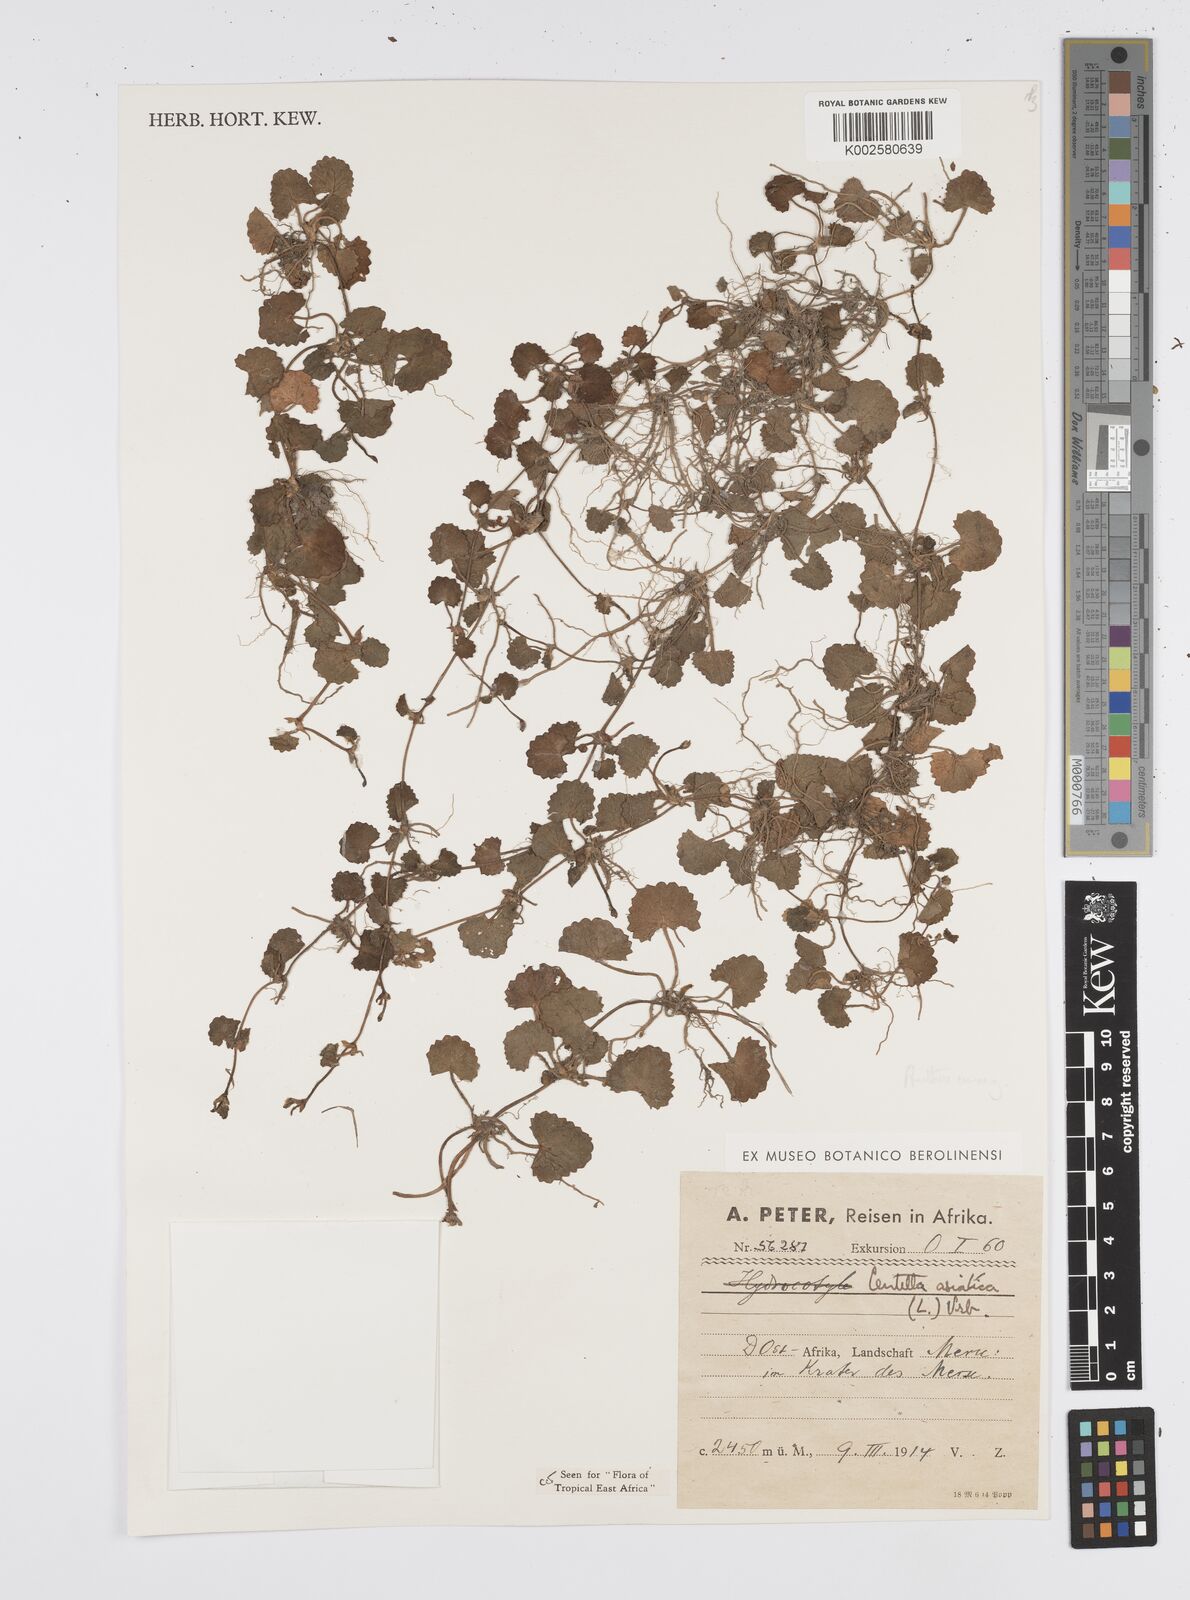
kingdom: Plantae
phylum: Tracheophyta
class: Magnoliopsida
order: Apiales
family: Apiaceae
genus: Centella
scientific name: Centella asiatica
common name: Spadeleaf
